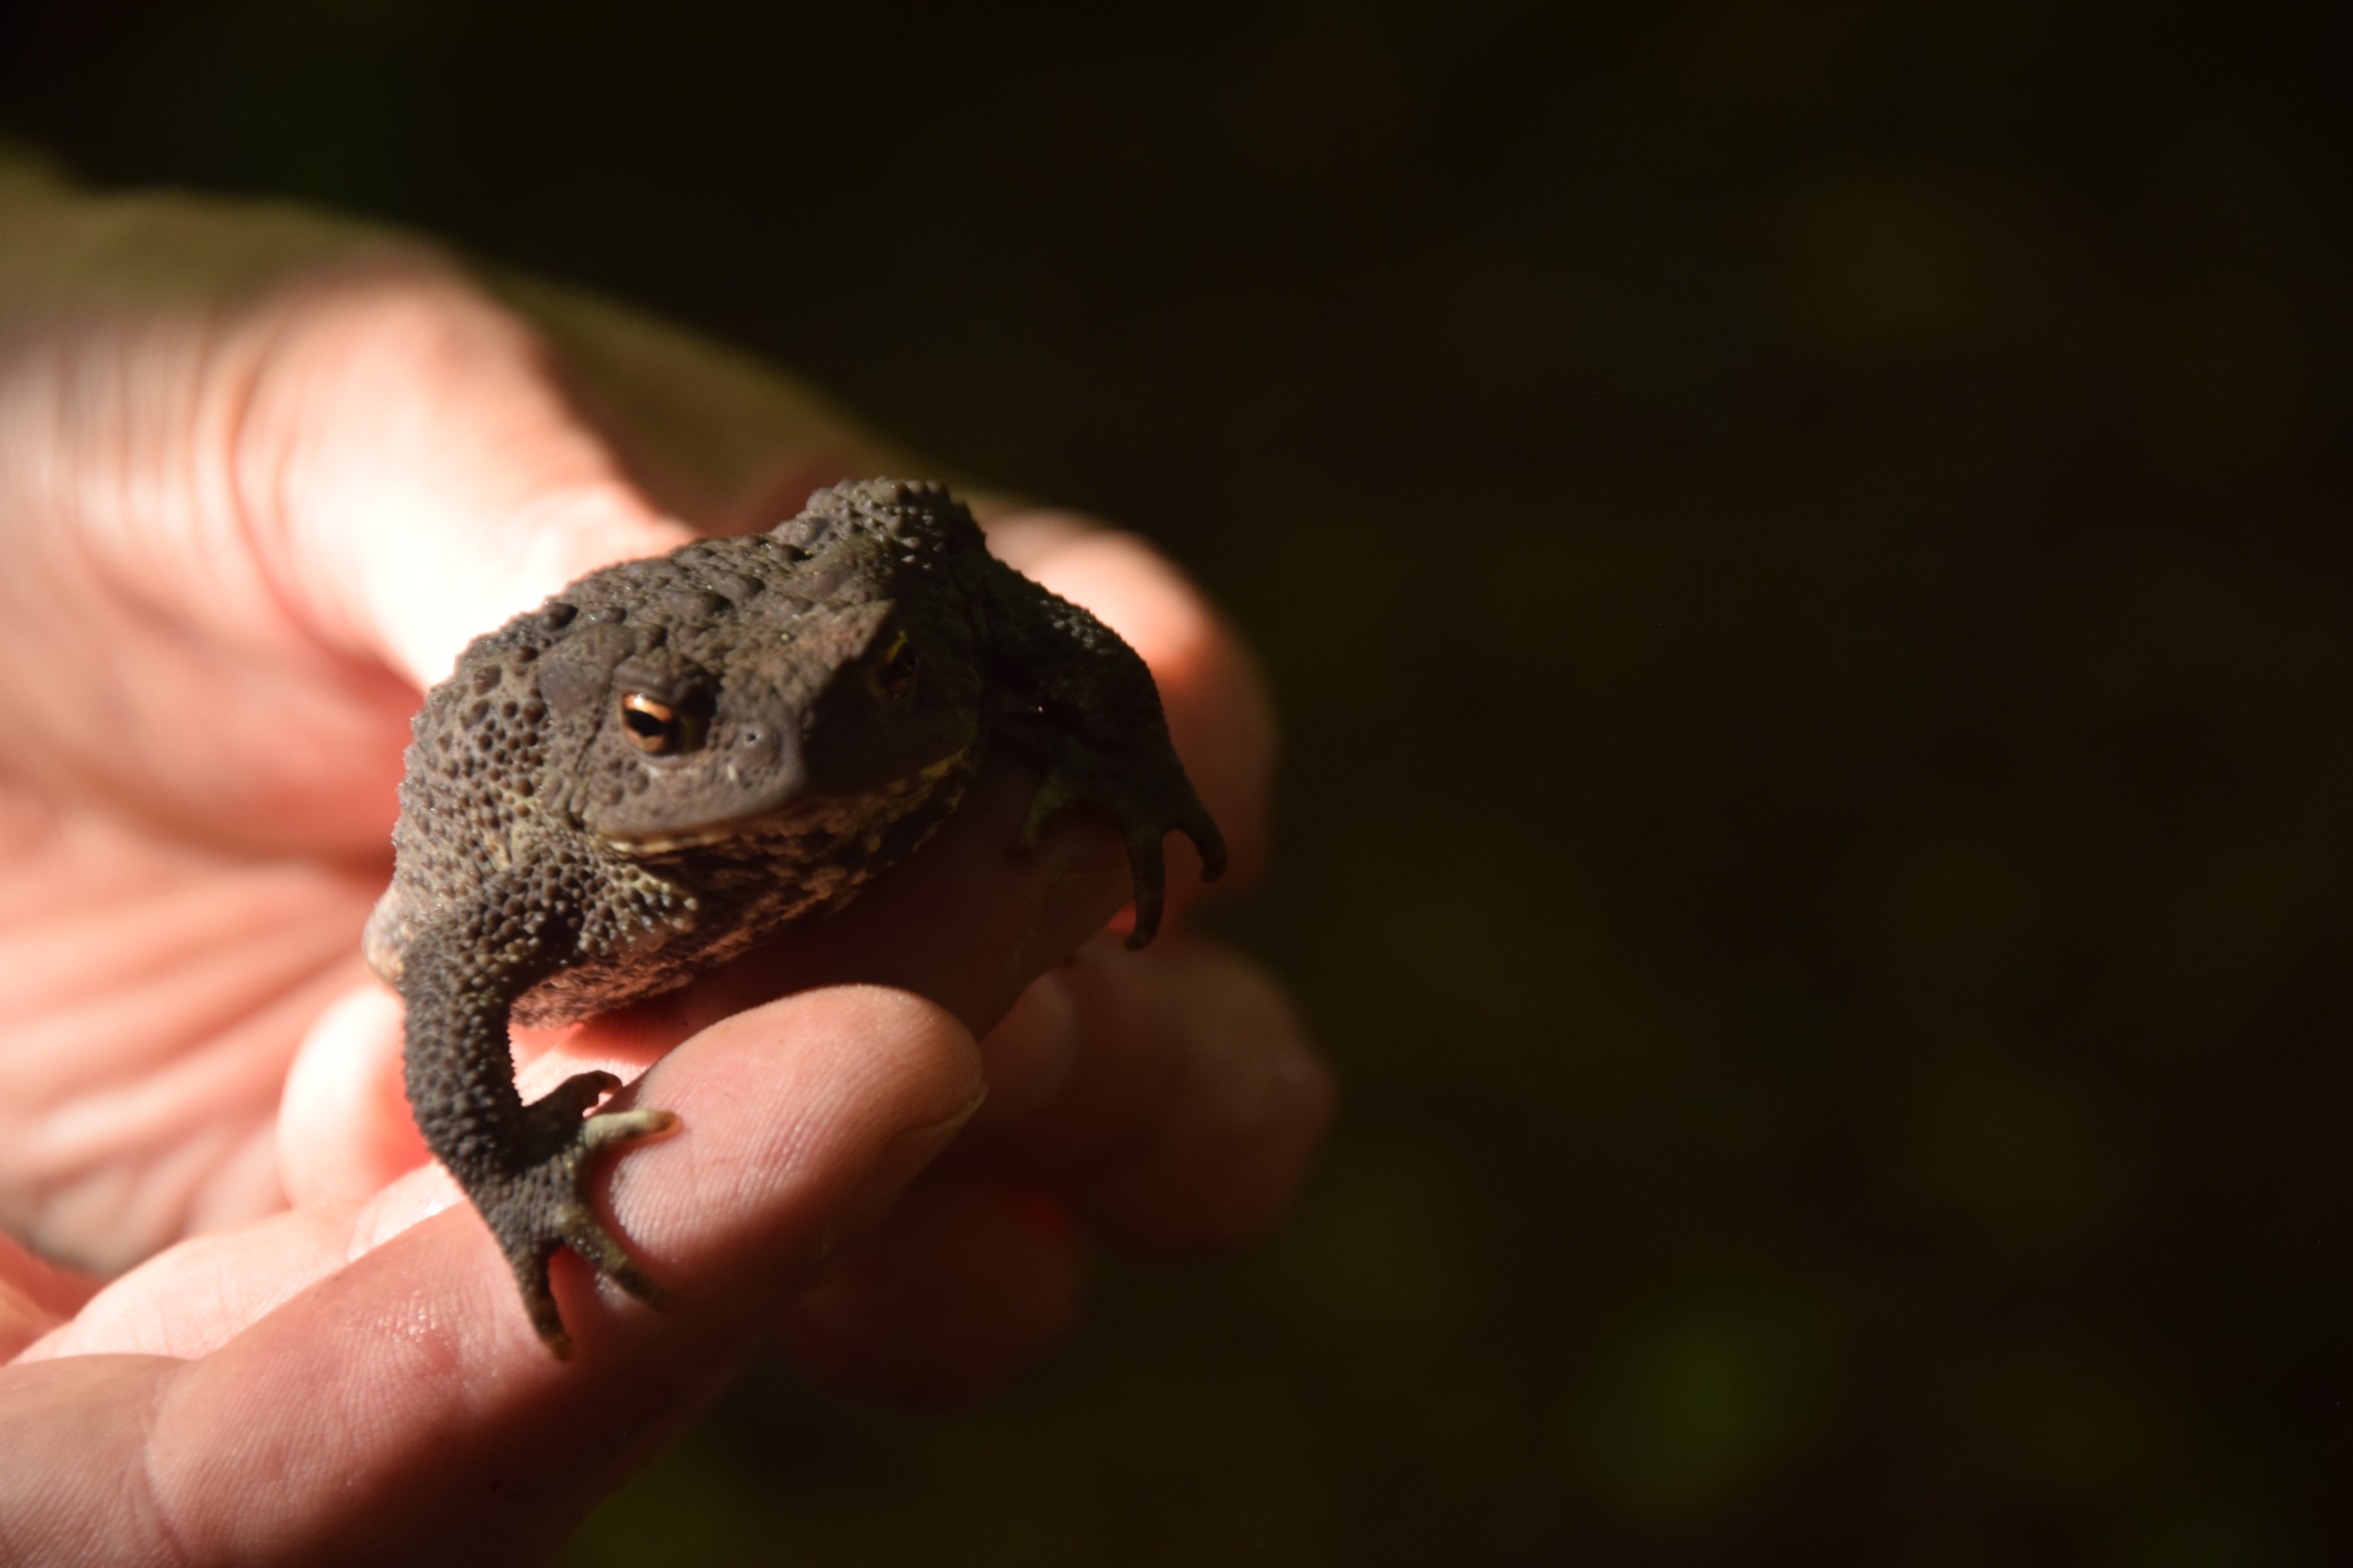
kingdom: Animalia
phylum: Chordata
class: Amphibia
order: Anura
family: Bufonidae
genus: Bufo
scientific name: Bufo bufo
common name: Skrubtudse
